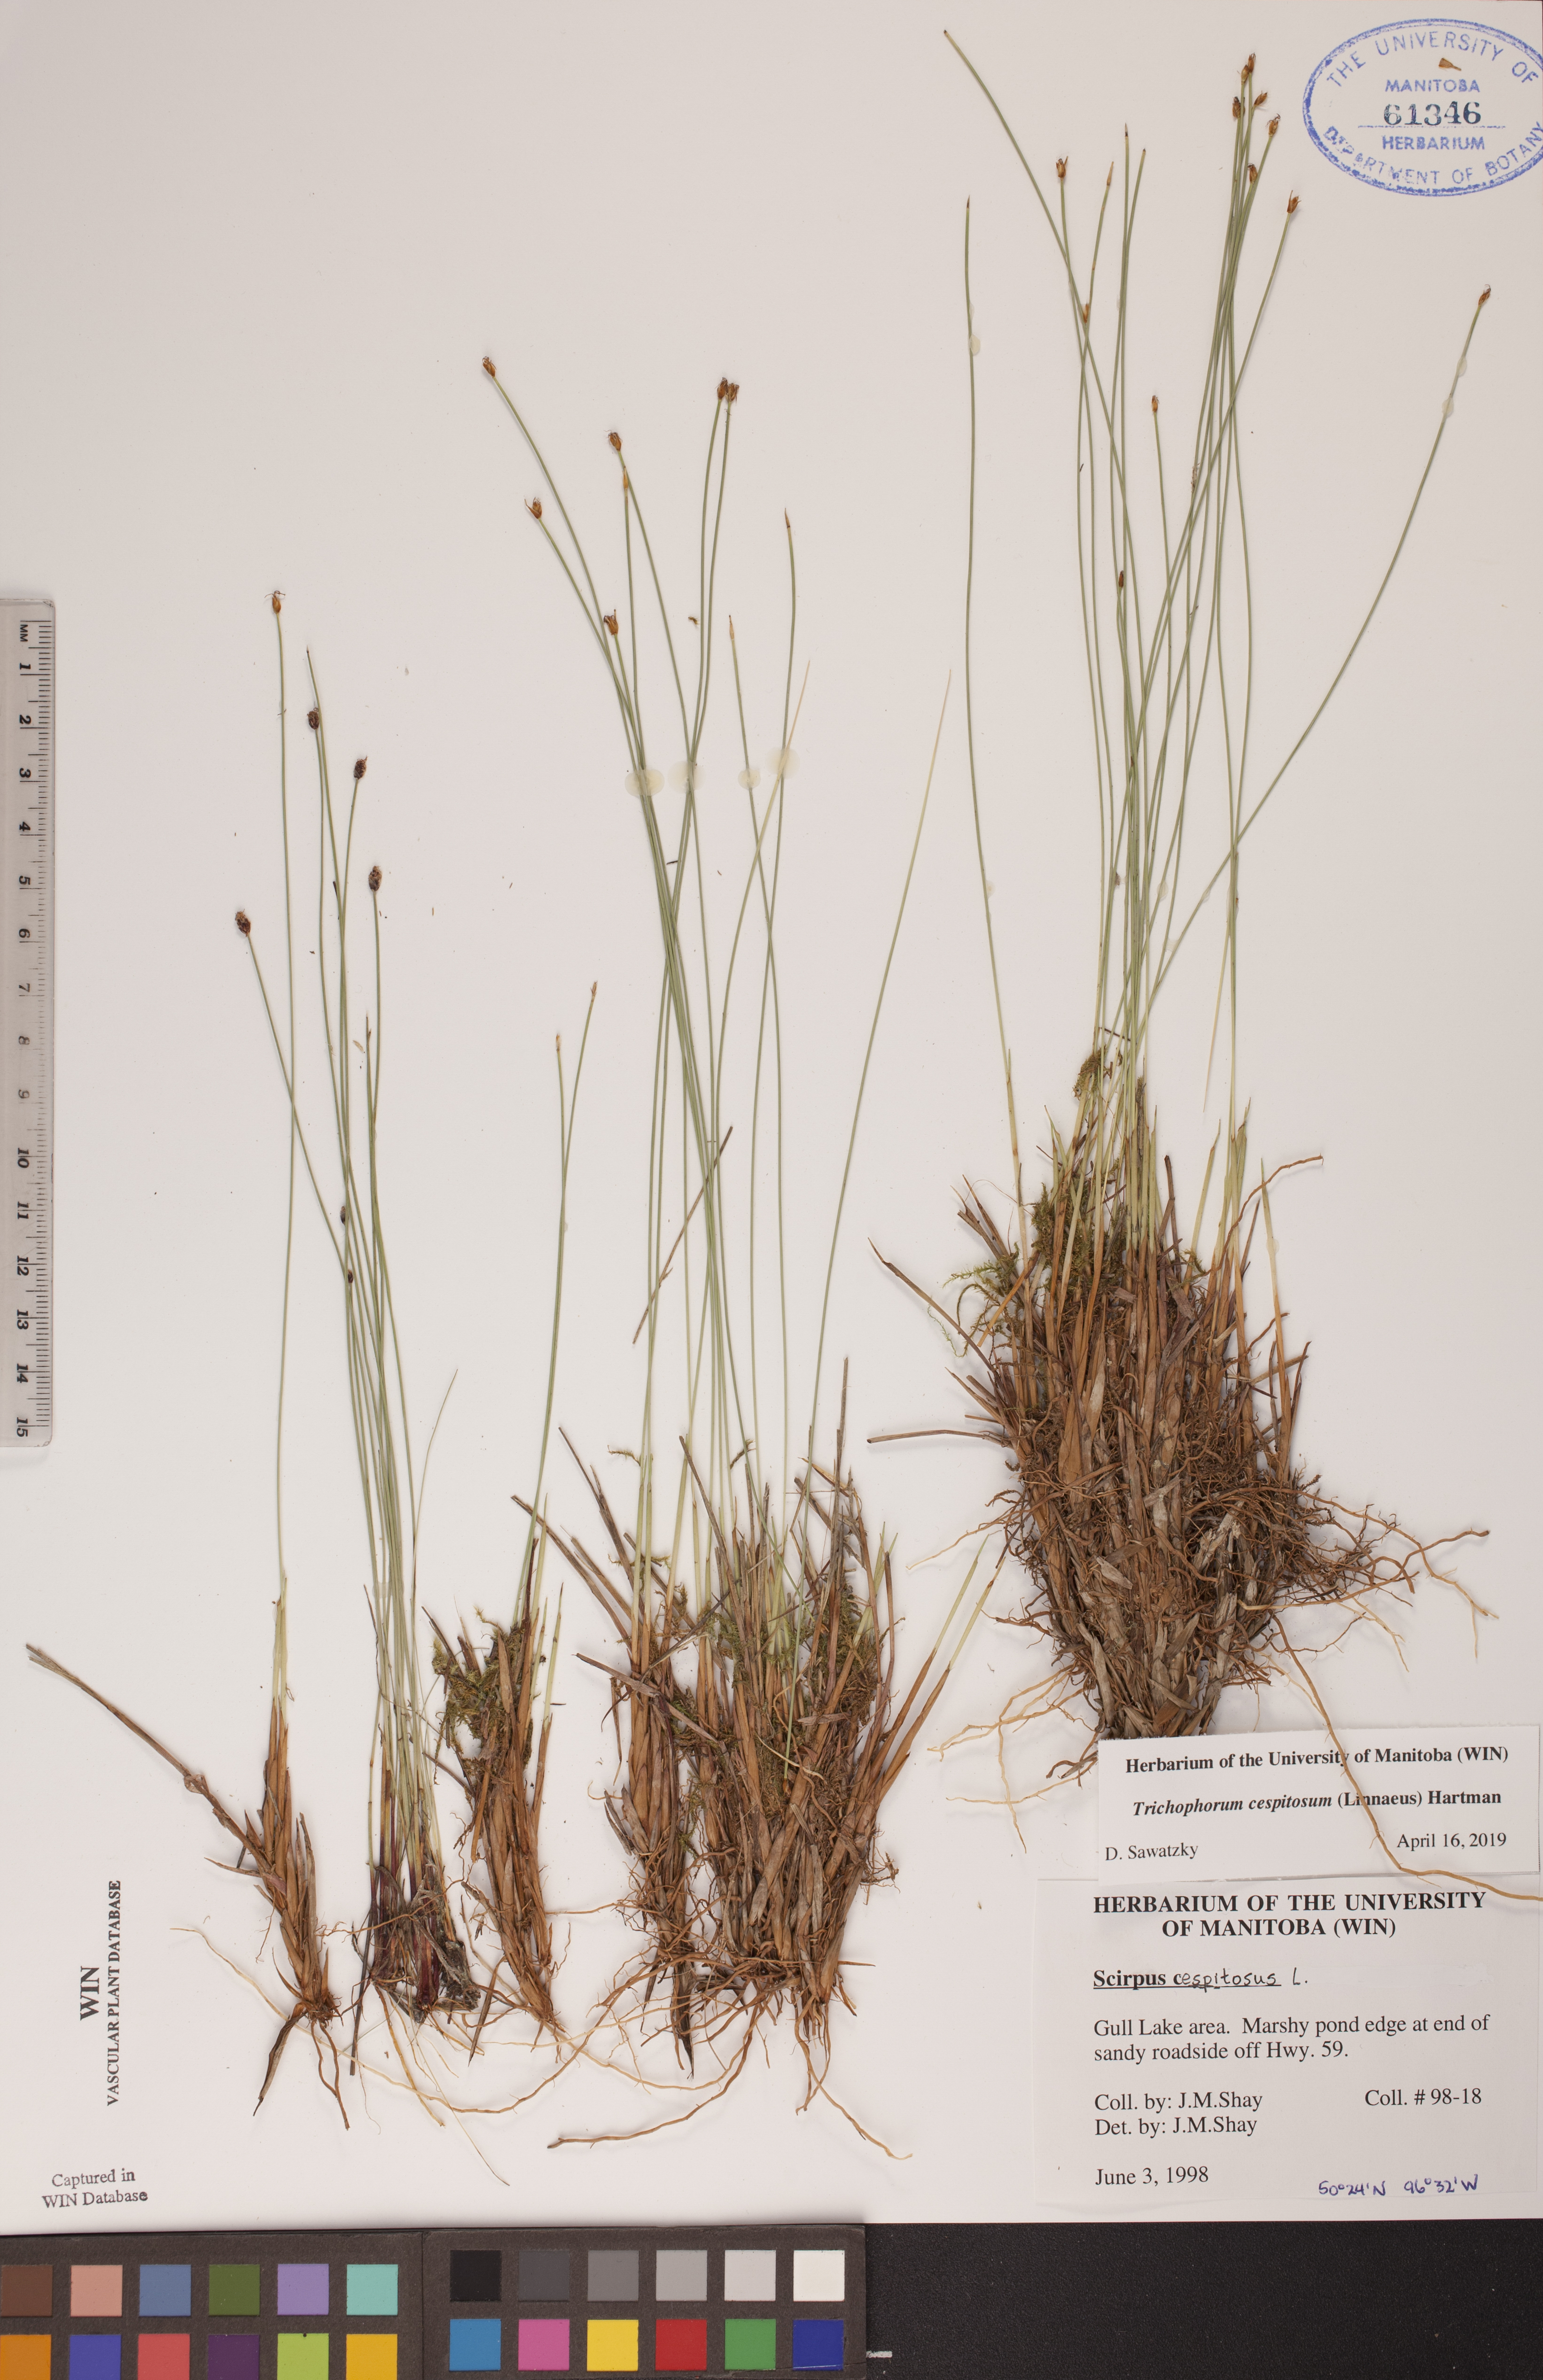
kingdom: Plantae
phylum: Tracheophyta
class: Liliopsida
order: Poales
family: Cyperaceae
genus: Trichophorum
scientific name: Trichophorum cespitosum
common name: Cespitose bulrush
